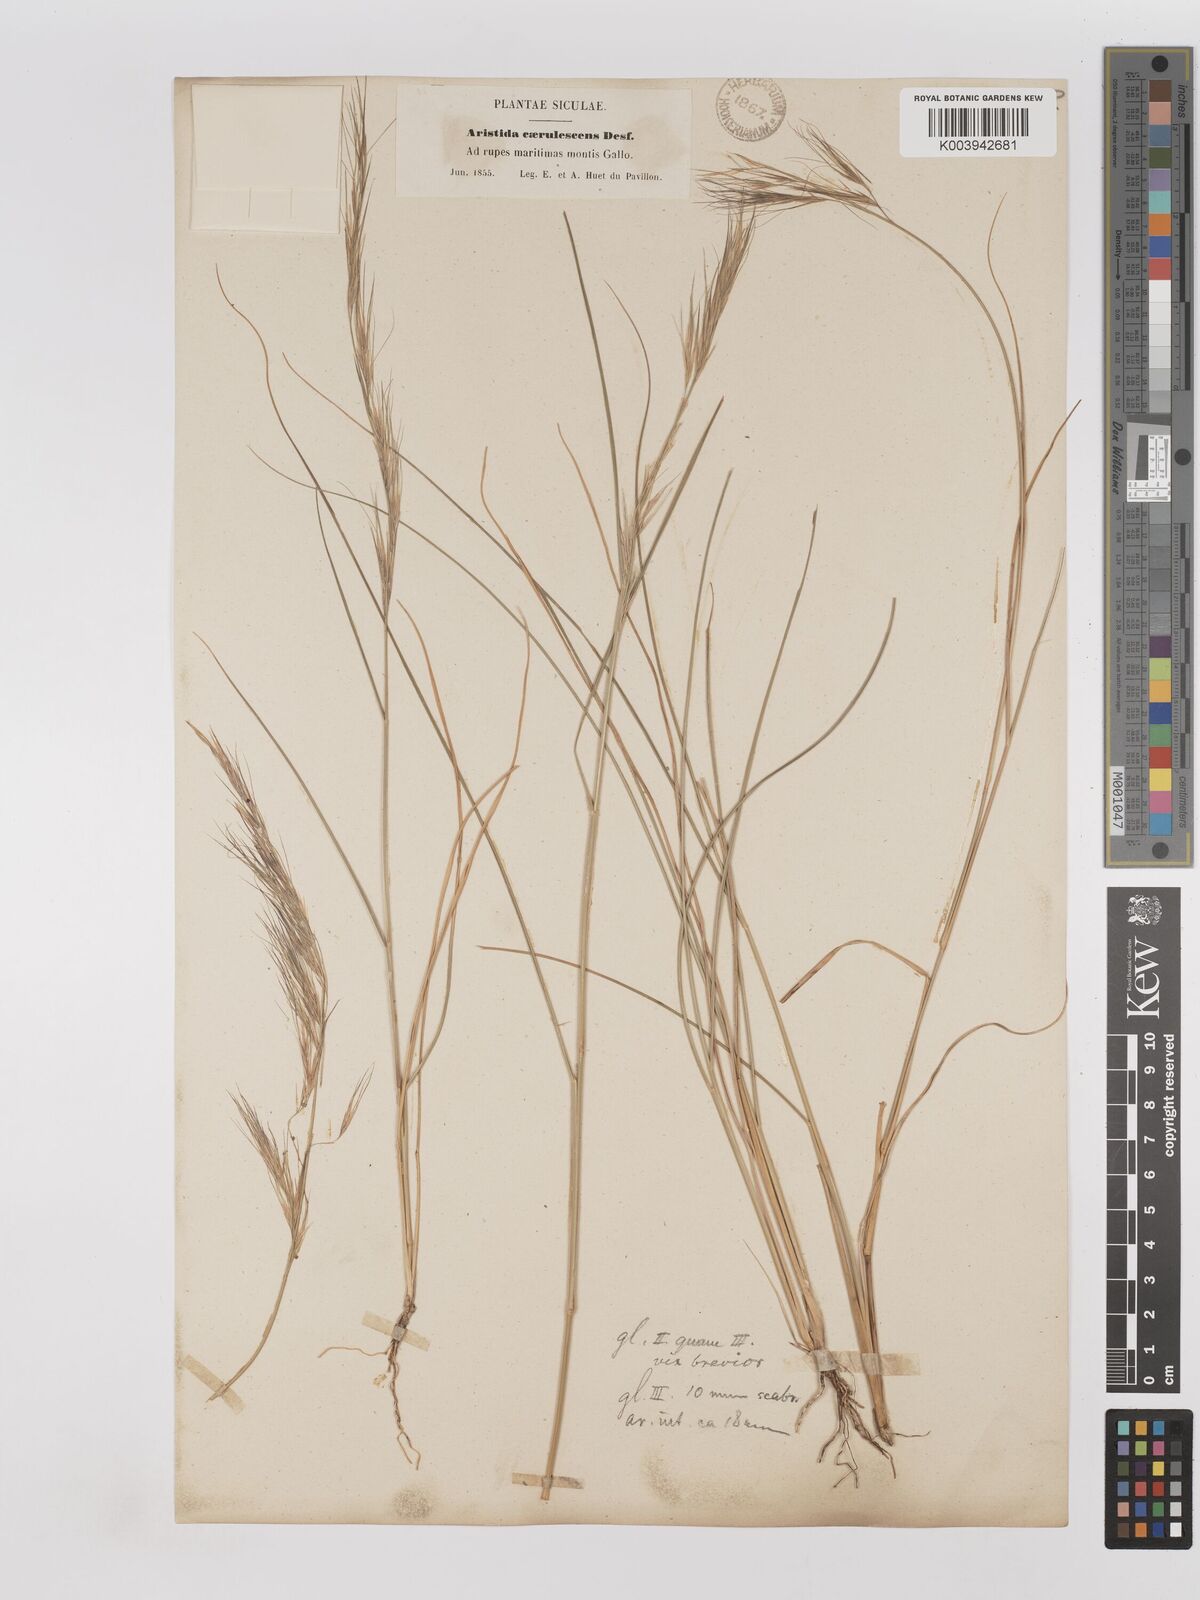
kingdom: Plantae
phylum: Tracheophyta
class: Liliopsida
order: Poales
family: Poaceae
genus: Aristida
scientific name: Aristida adscensionis
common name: Sixweeks threeawn
